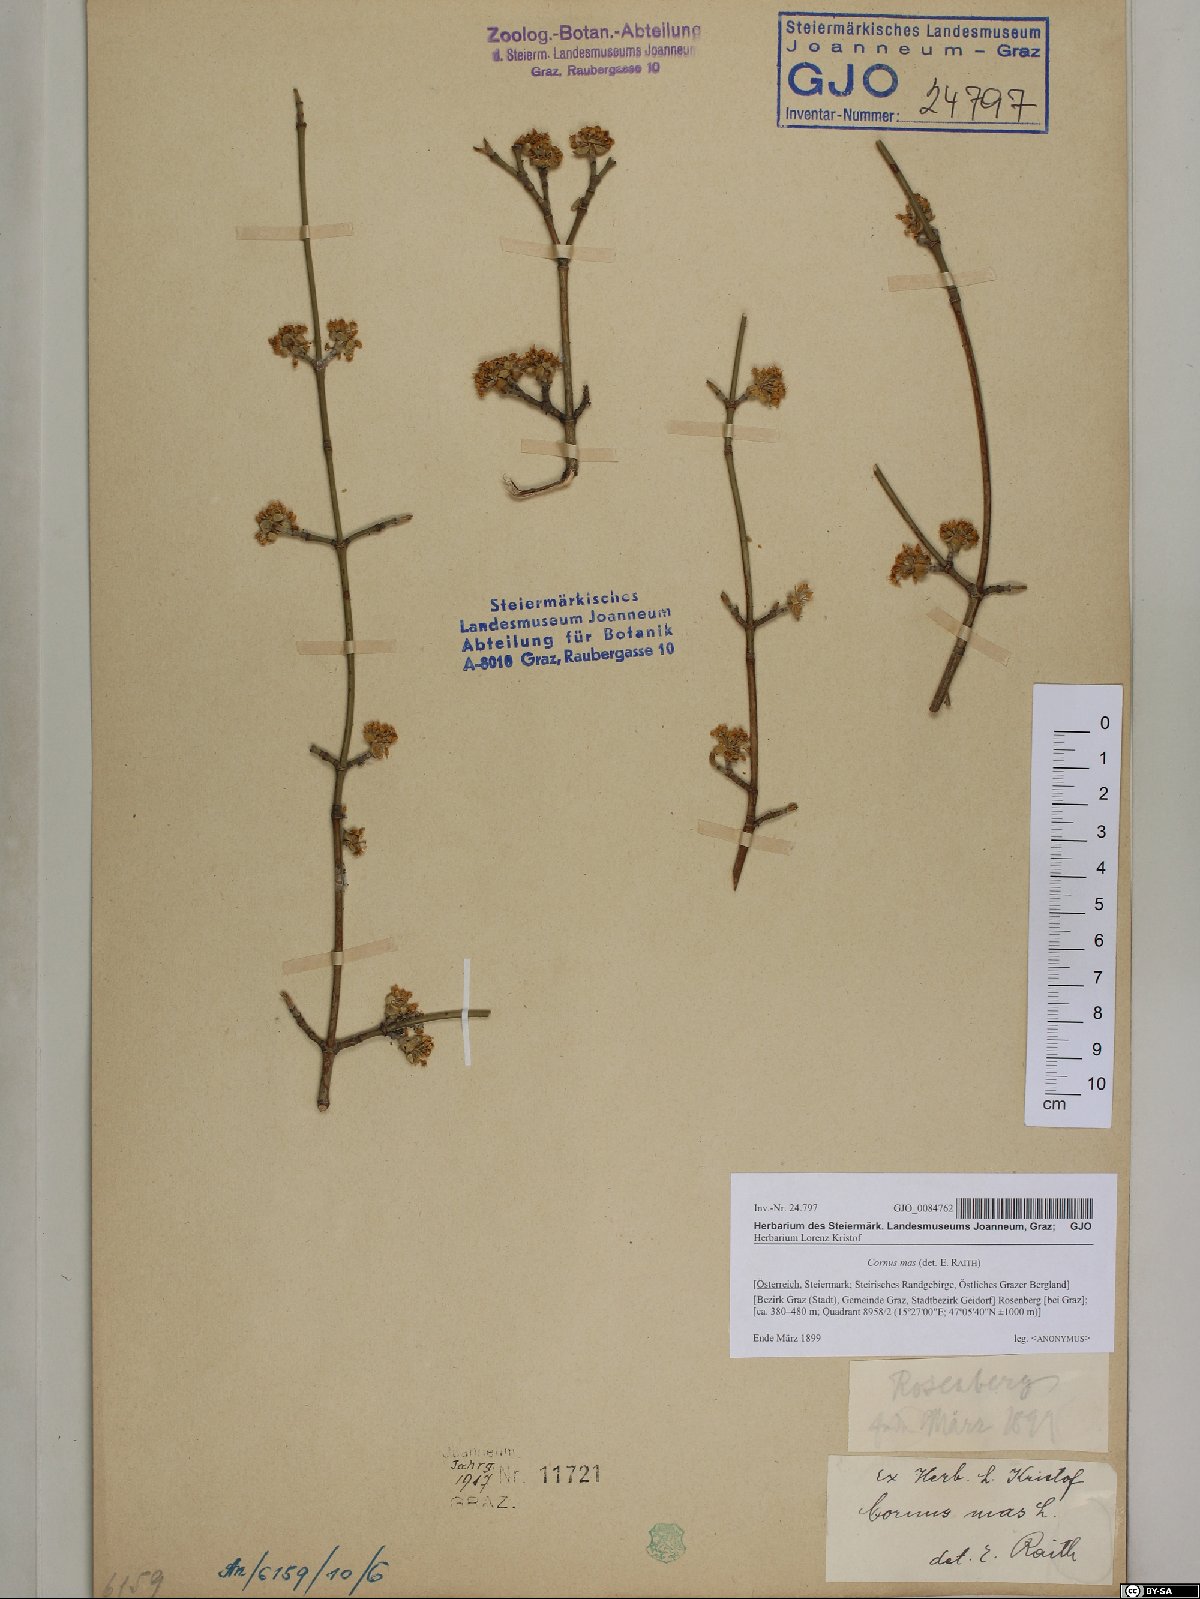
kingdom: Plantae
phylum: Tracheophyta
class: Magnoliopsida
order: Cornales
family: Cornaceae
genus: Cornus
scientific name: Cornus mas
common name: Cornelian-cherry
